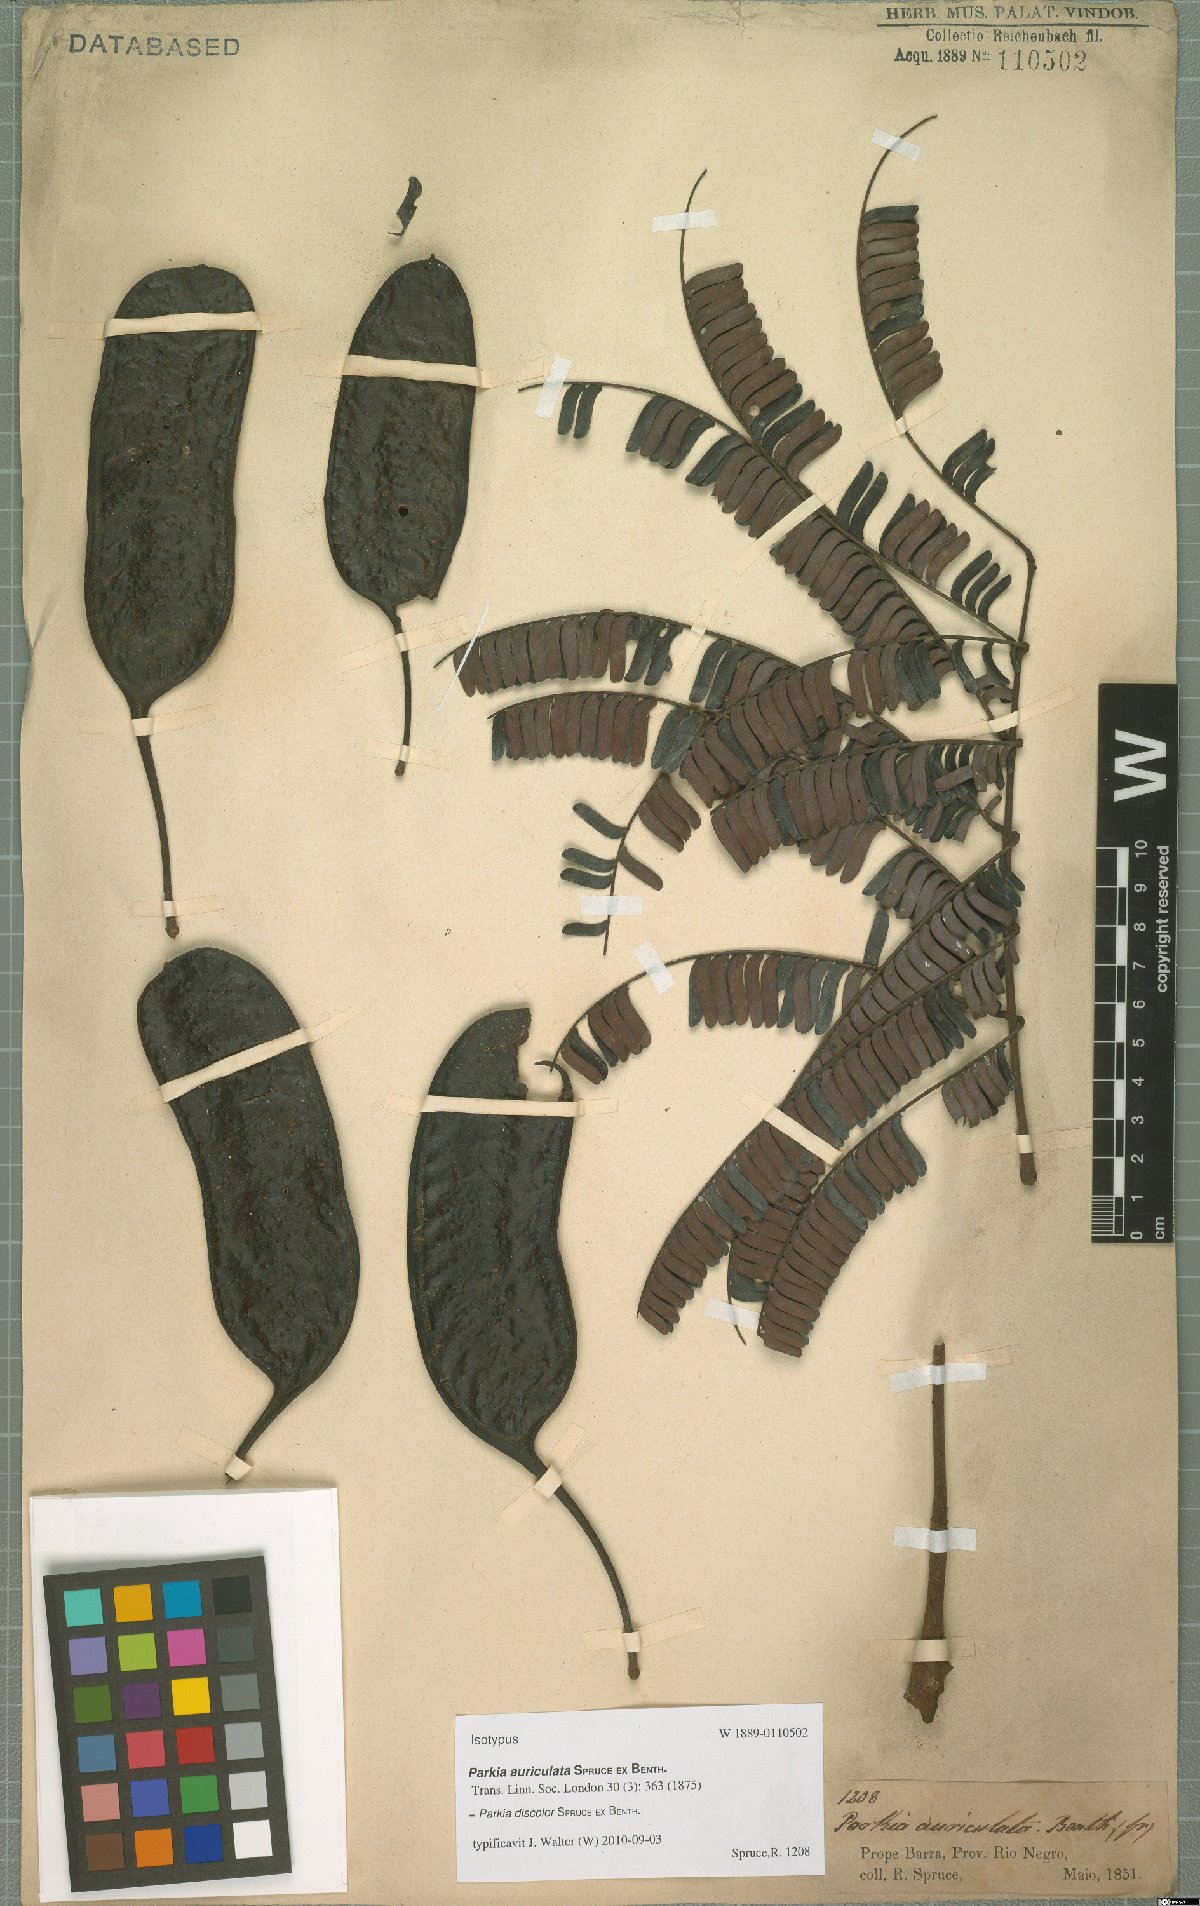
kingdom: Plantae
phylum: Tracheophyta
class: Magnoliopsida
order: Fabales
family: Fabaceae
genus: Parkia
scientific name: Parkia discolor
